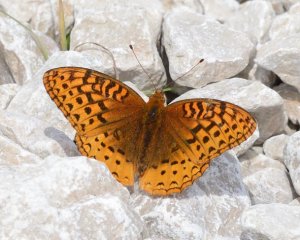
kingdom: Animalia
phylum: Arthropoda
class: Insecta
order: Lepidoptera
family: Nymphalidae
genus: Speyeria
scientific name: Speyeria cybele
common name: Great Spangled Fritillary
